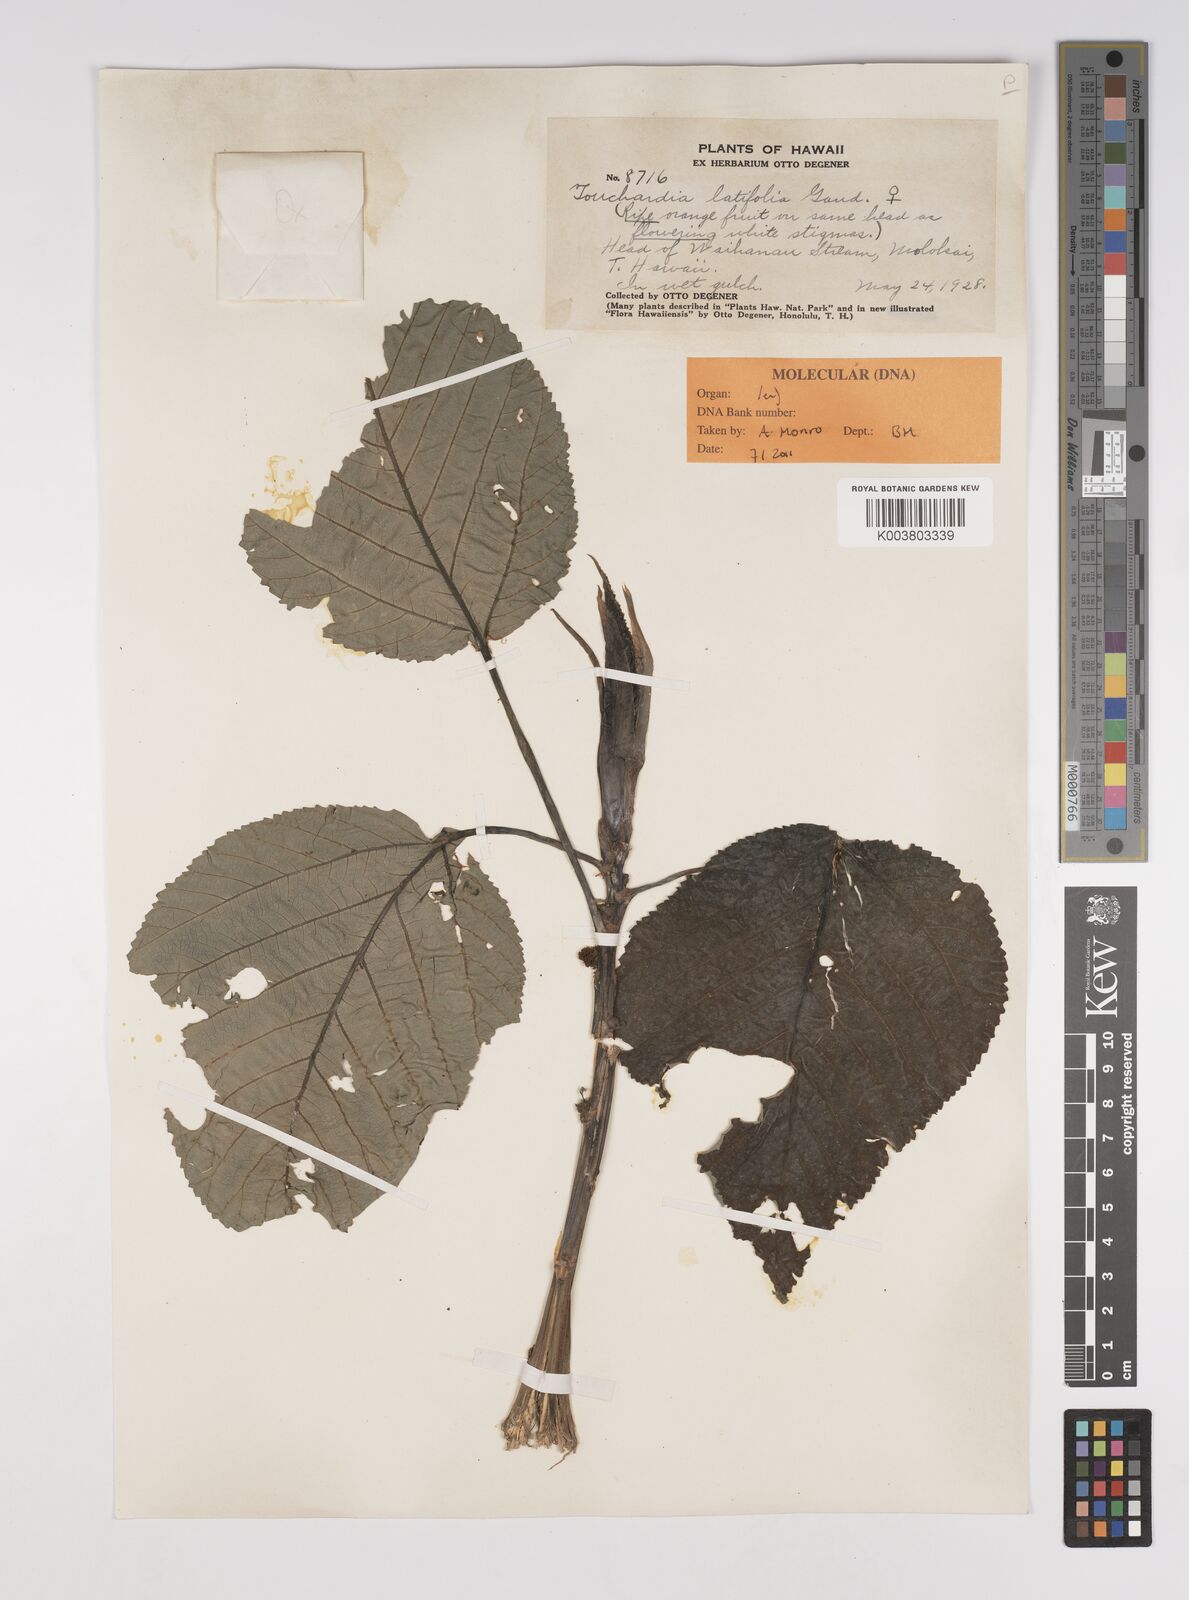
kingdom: Plantae
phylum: Tracheophyta
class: Magnoliopsida
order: Rosales
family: Urticaceae
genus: Touchardia
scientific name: Touchardia latifolia
